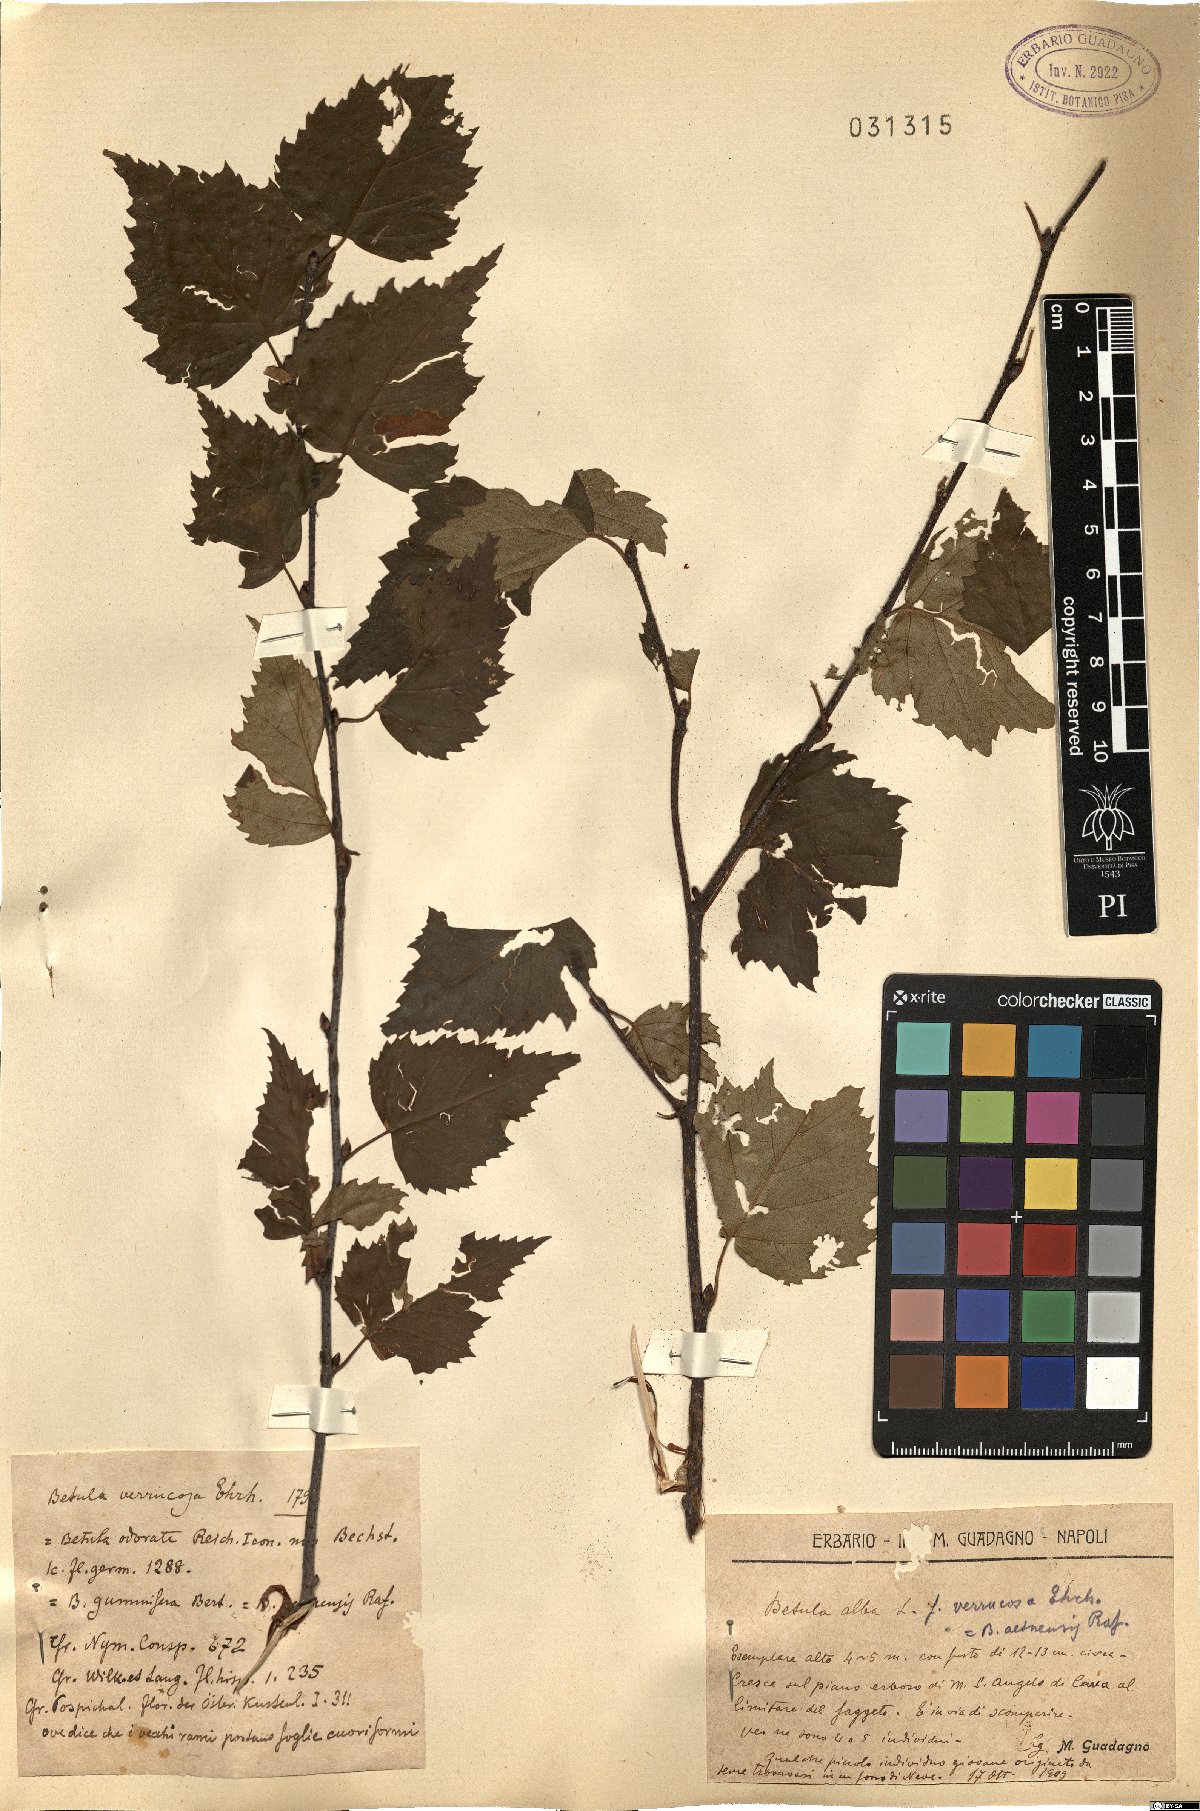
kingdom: Plantae
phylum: Tracheophyta
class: Magnoliopsida
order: Fagales
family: Betulaceae
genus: Betula
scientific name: Betula pendula
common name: Silver birch
